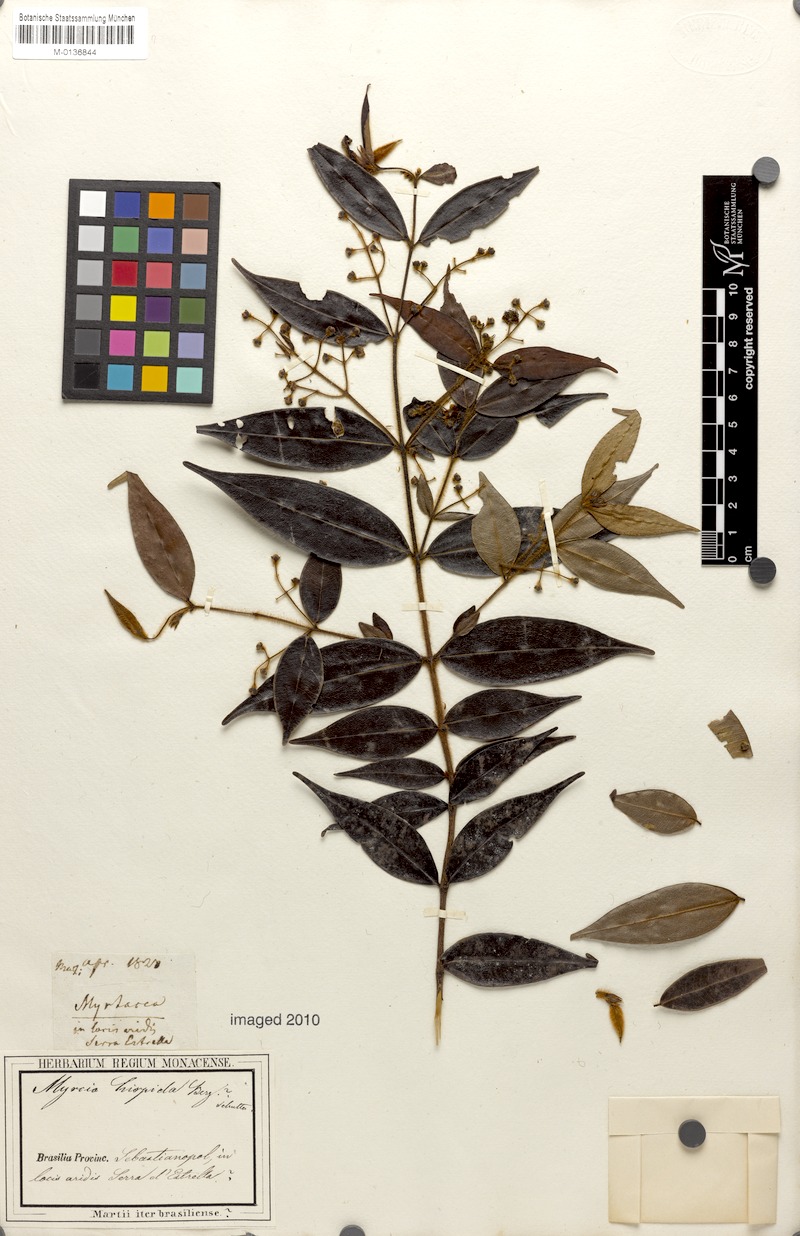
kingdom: Plantae
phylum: Tracheophyta
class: Magnoliopsida
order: Myrtales
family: Myrtaceae
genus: Myrcia
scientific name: Myrcia eriopus
